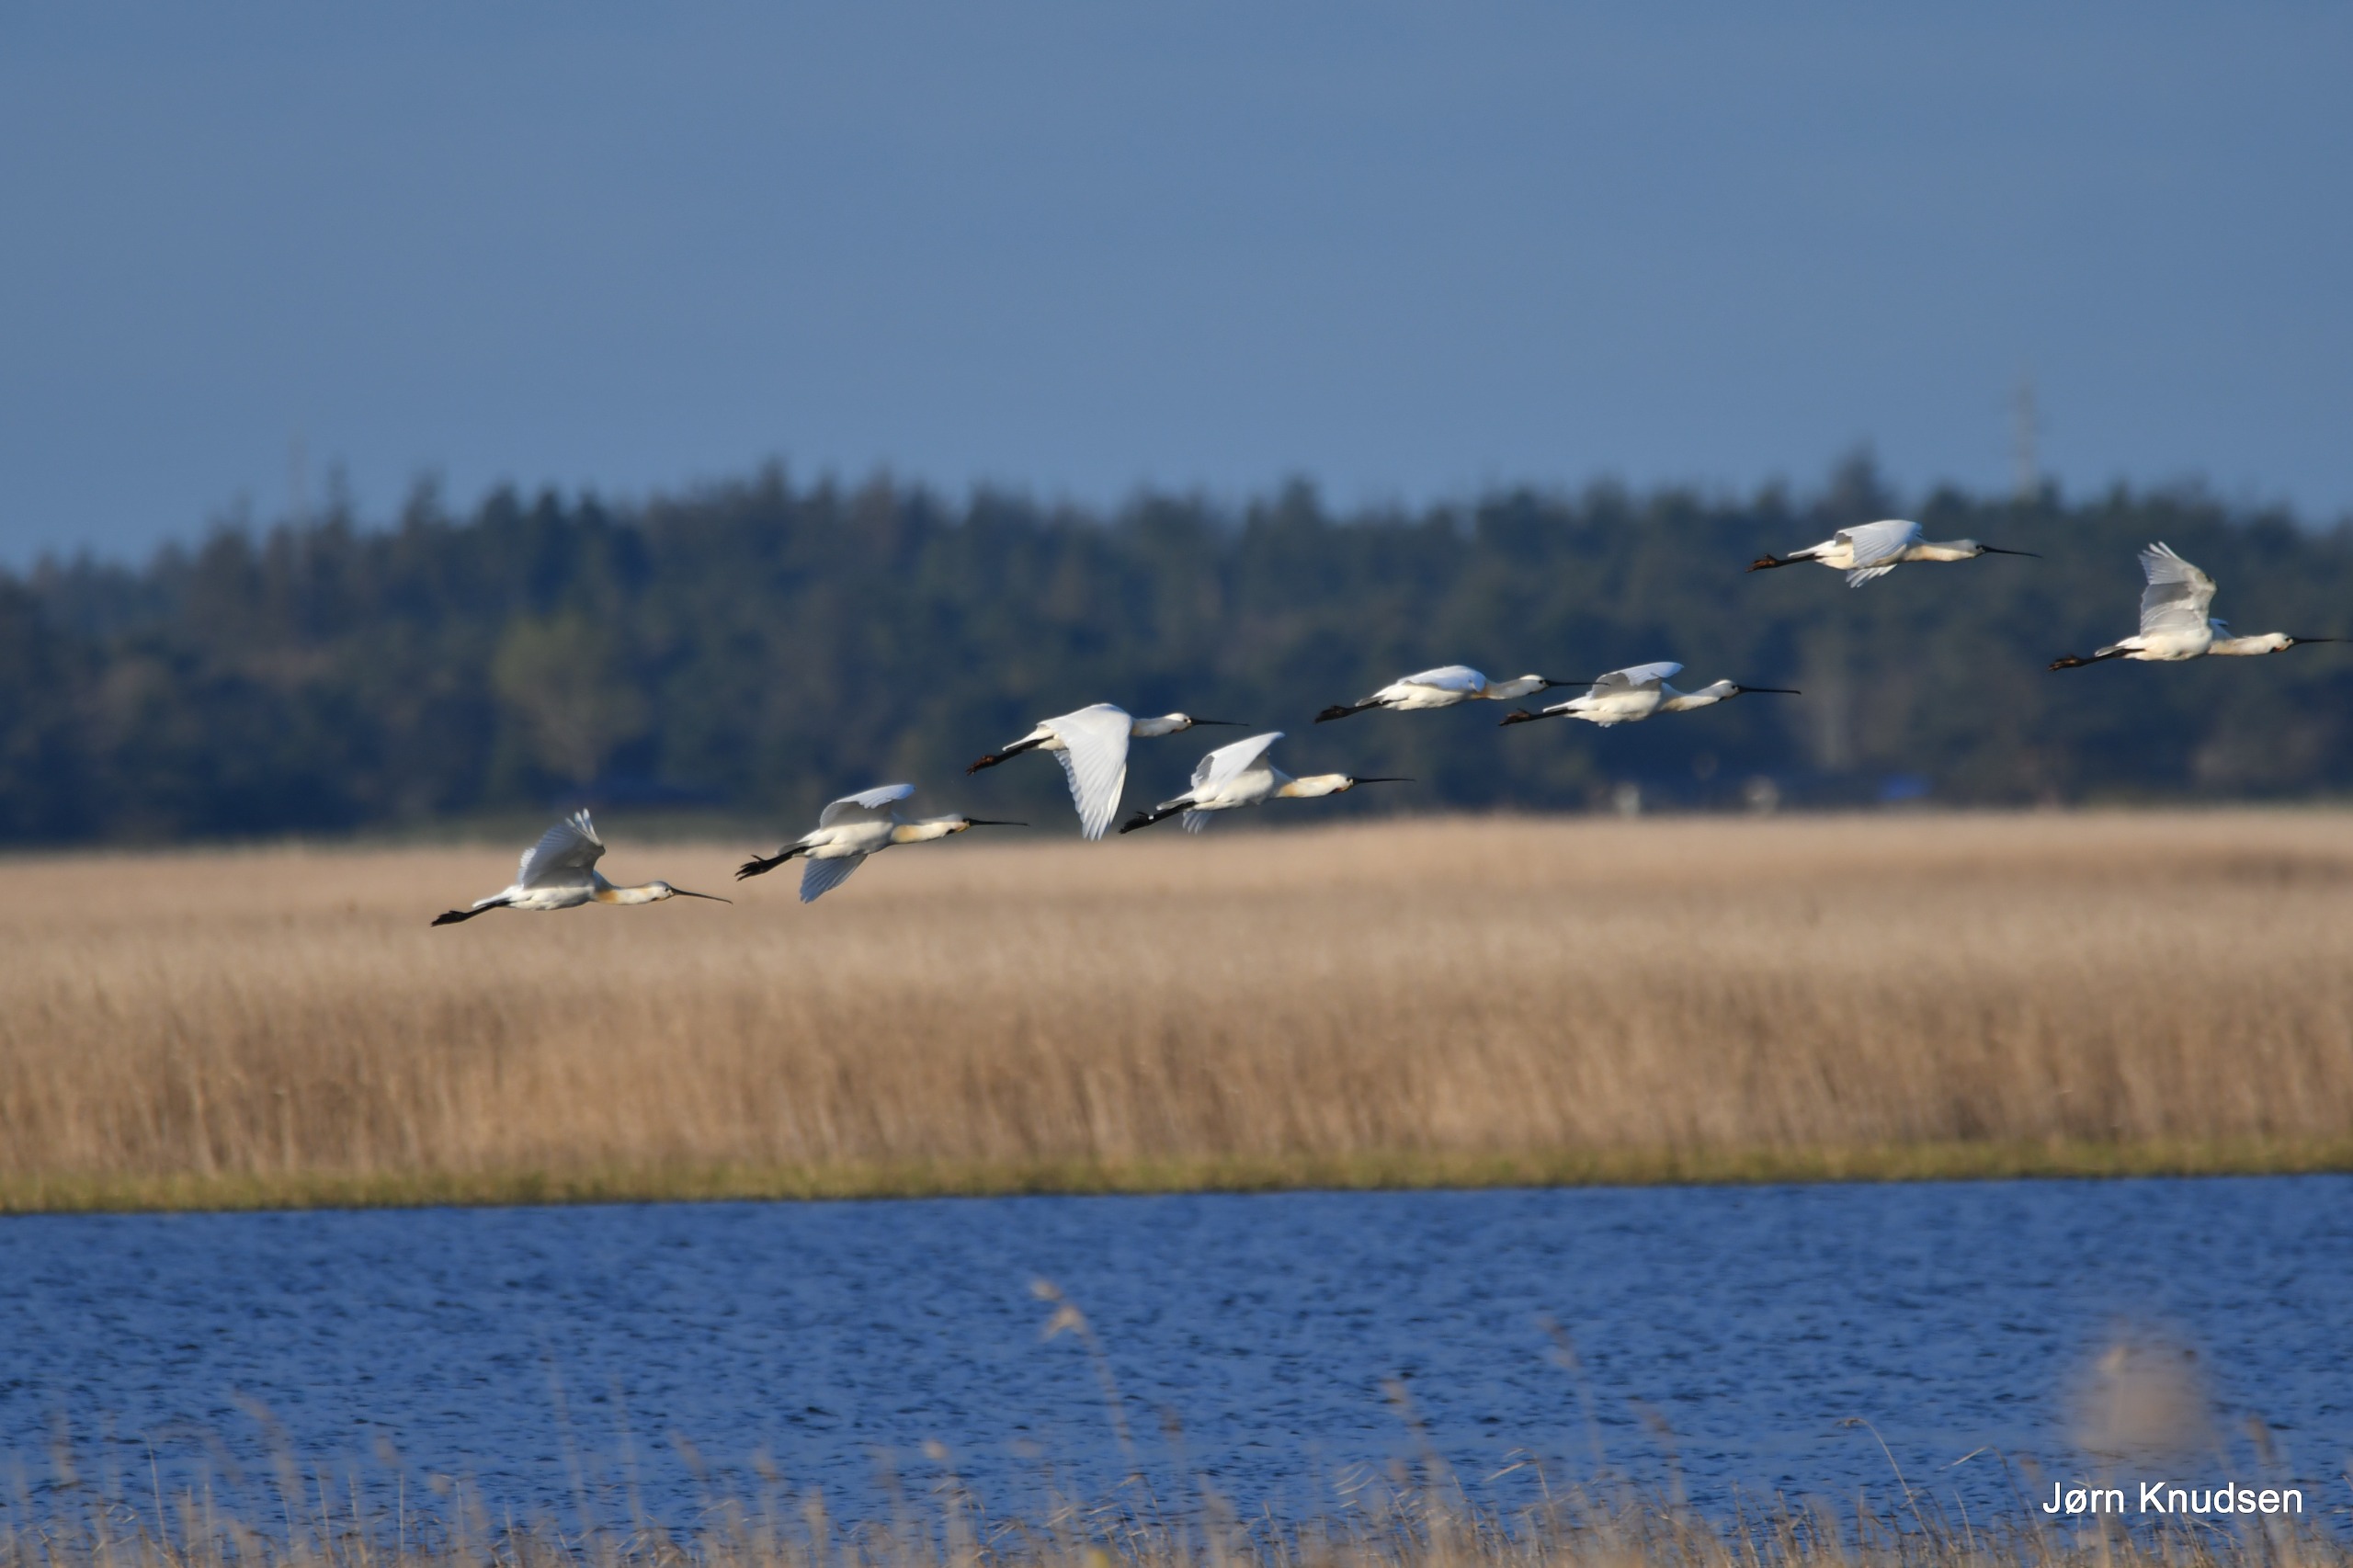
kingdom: Animalia
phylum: Chordata
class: Aves
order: Pelecaniformes
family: Threskiornithidae
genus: Platalea
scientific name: Platalea leucorodia
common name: Skestork
